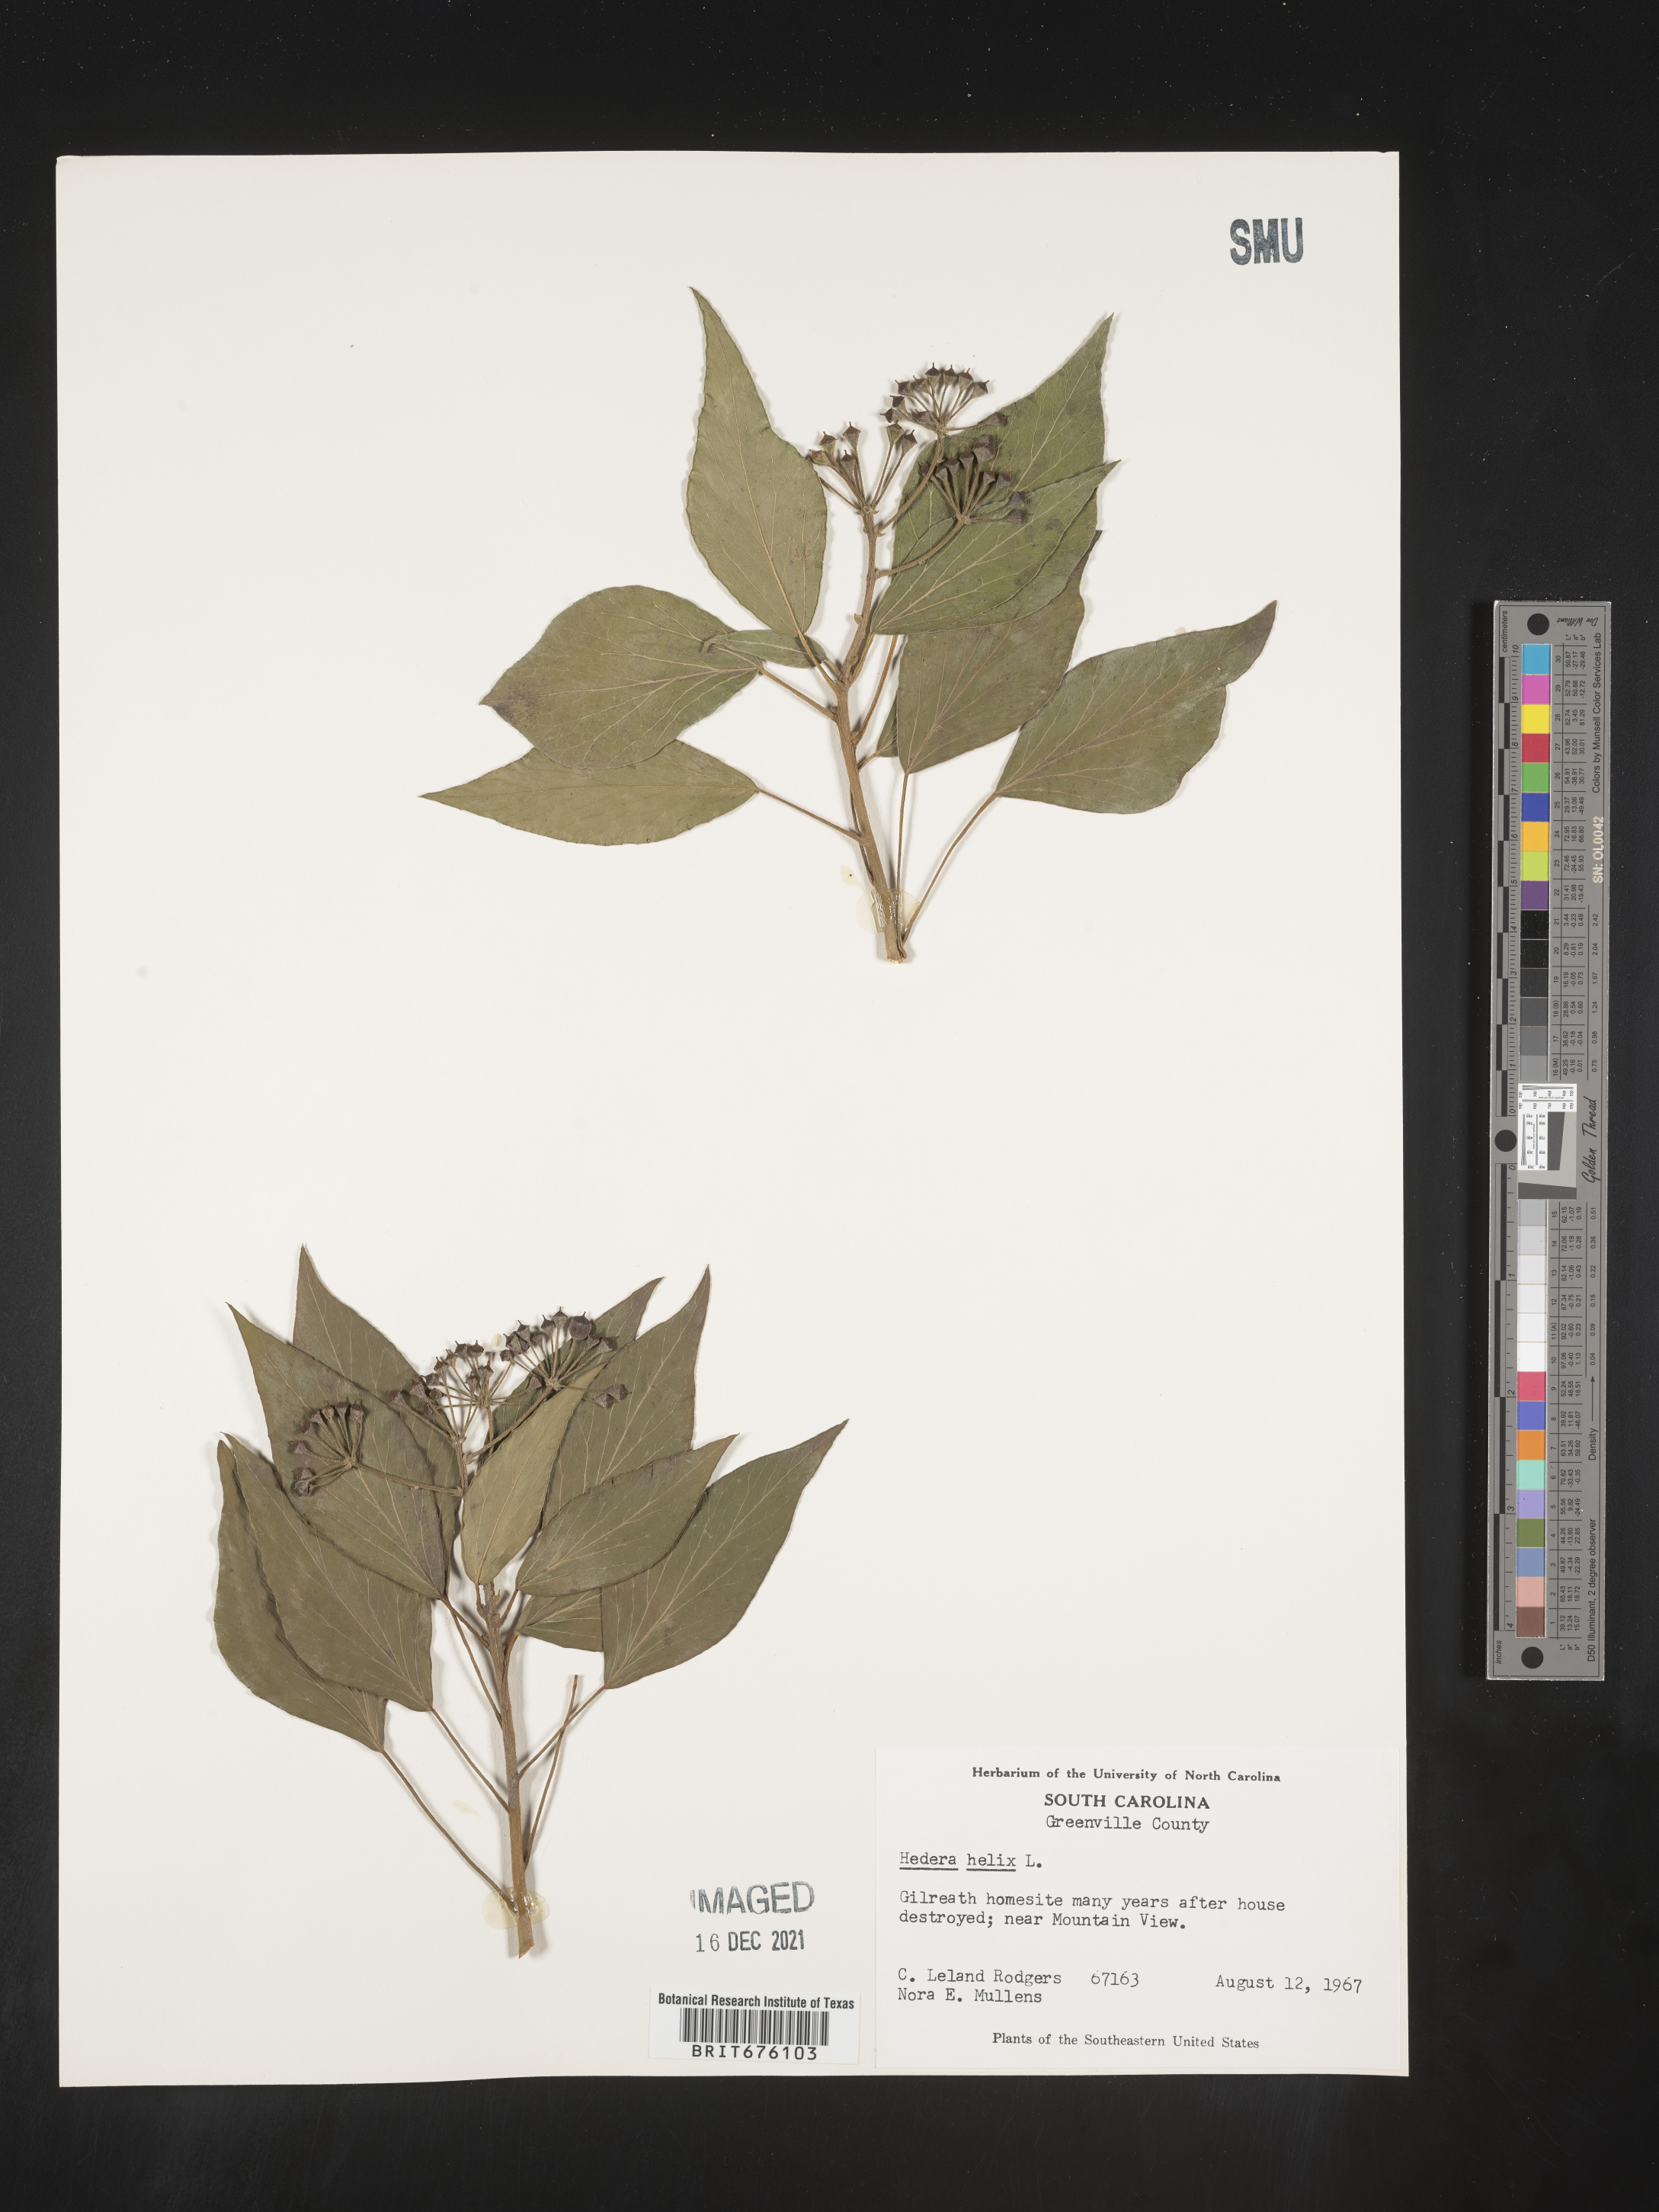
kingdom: Plantae
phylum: Tracheophyta
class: Magnoliopsida
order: Apiales
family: Araliaceae
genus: Hedera
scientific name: Hedera
